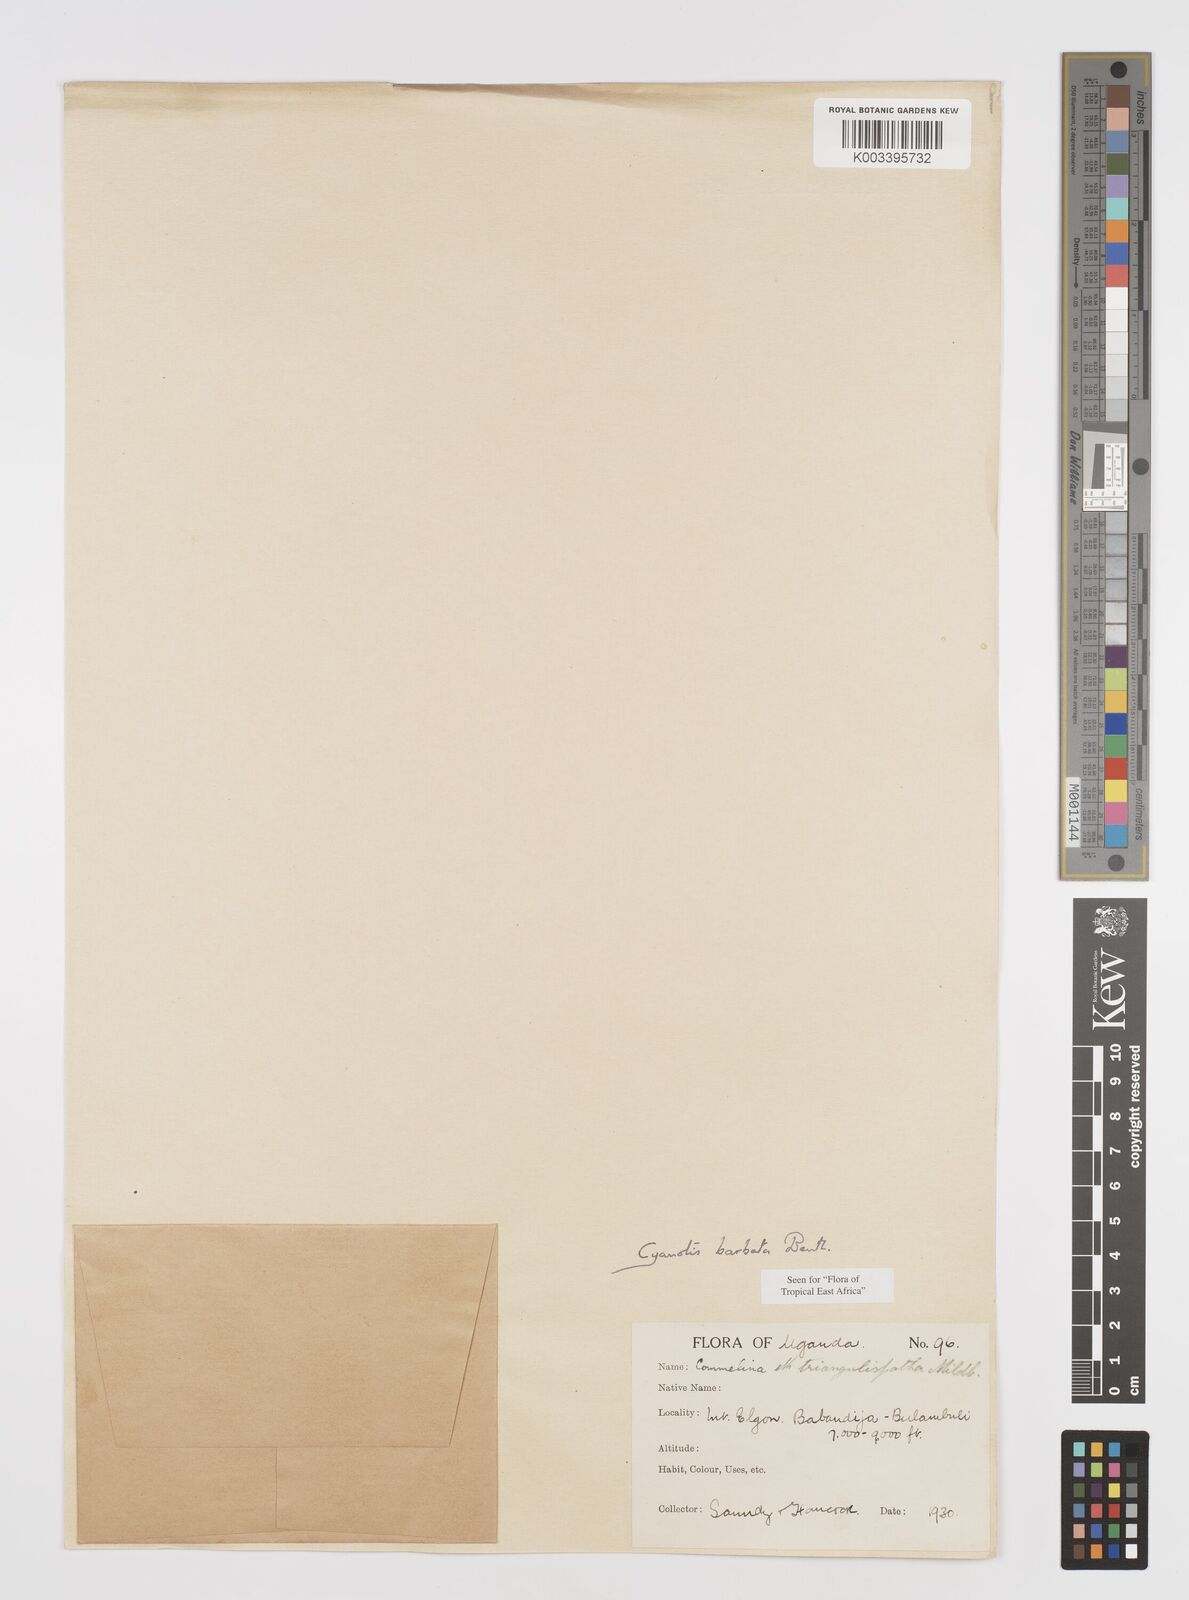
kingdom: Plantae
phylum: Tracheophyta
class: Liliopsida
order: Commelinales
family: Commelinaceae
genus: Cyanotis
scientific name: Cyanotis vaga
